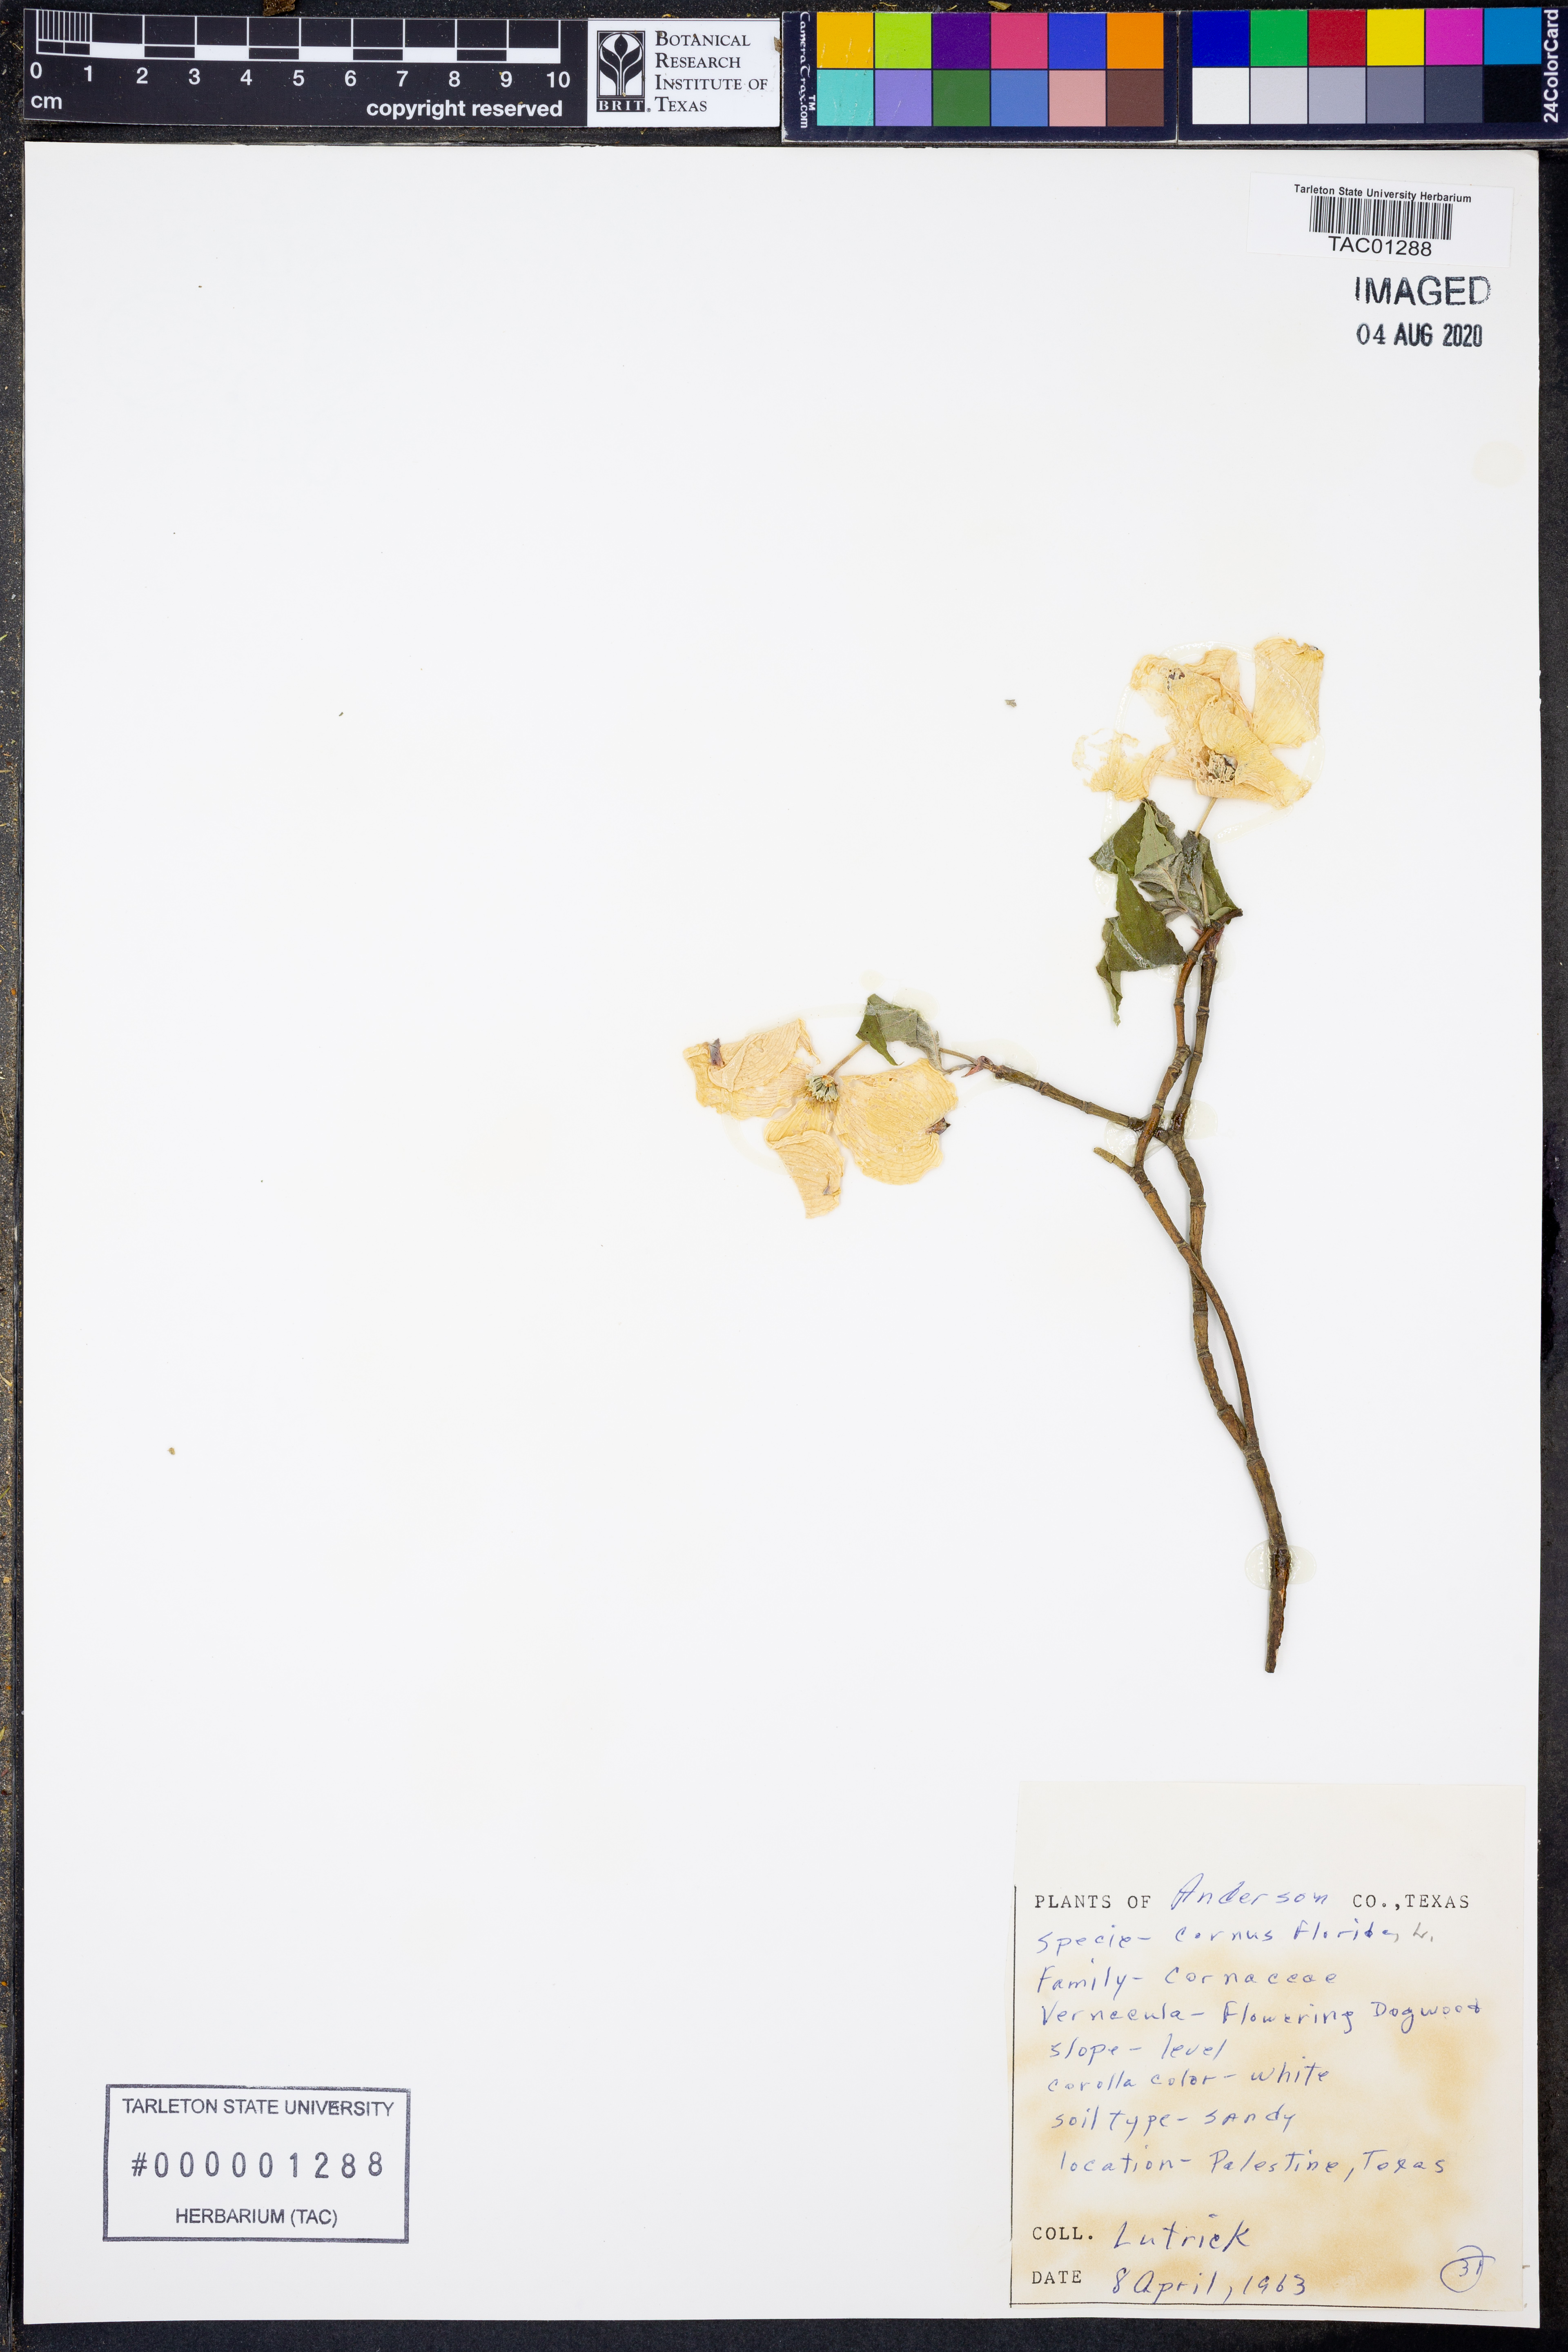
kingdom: Plantae
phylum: Tracheophyta
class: Magnoliopsida
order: Cornales
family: Cornaceae
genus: Cornus
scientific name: Cornus florida
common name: Flowering dogwood
